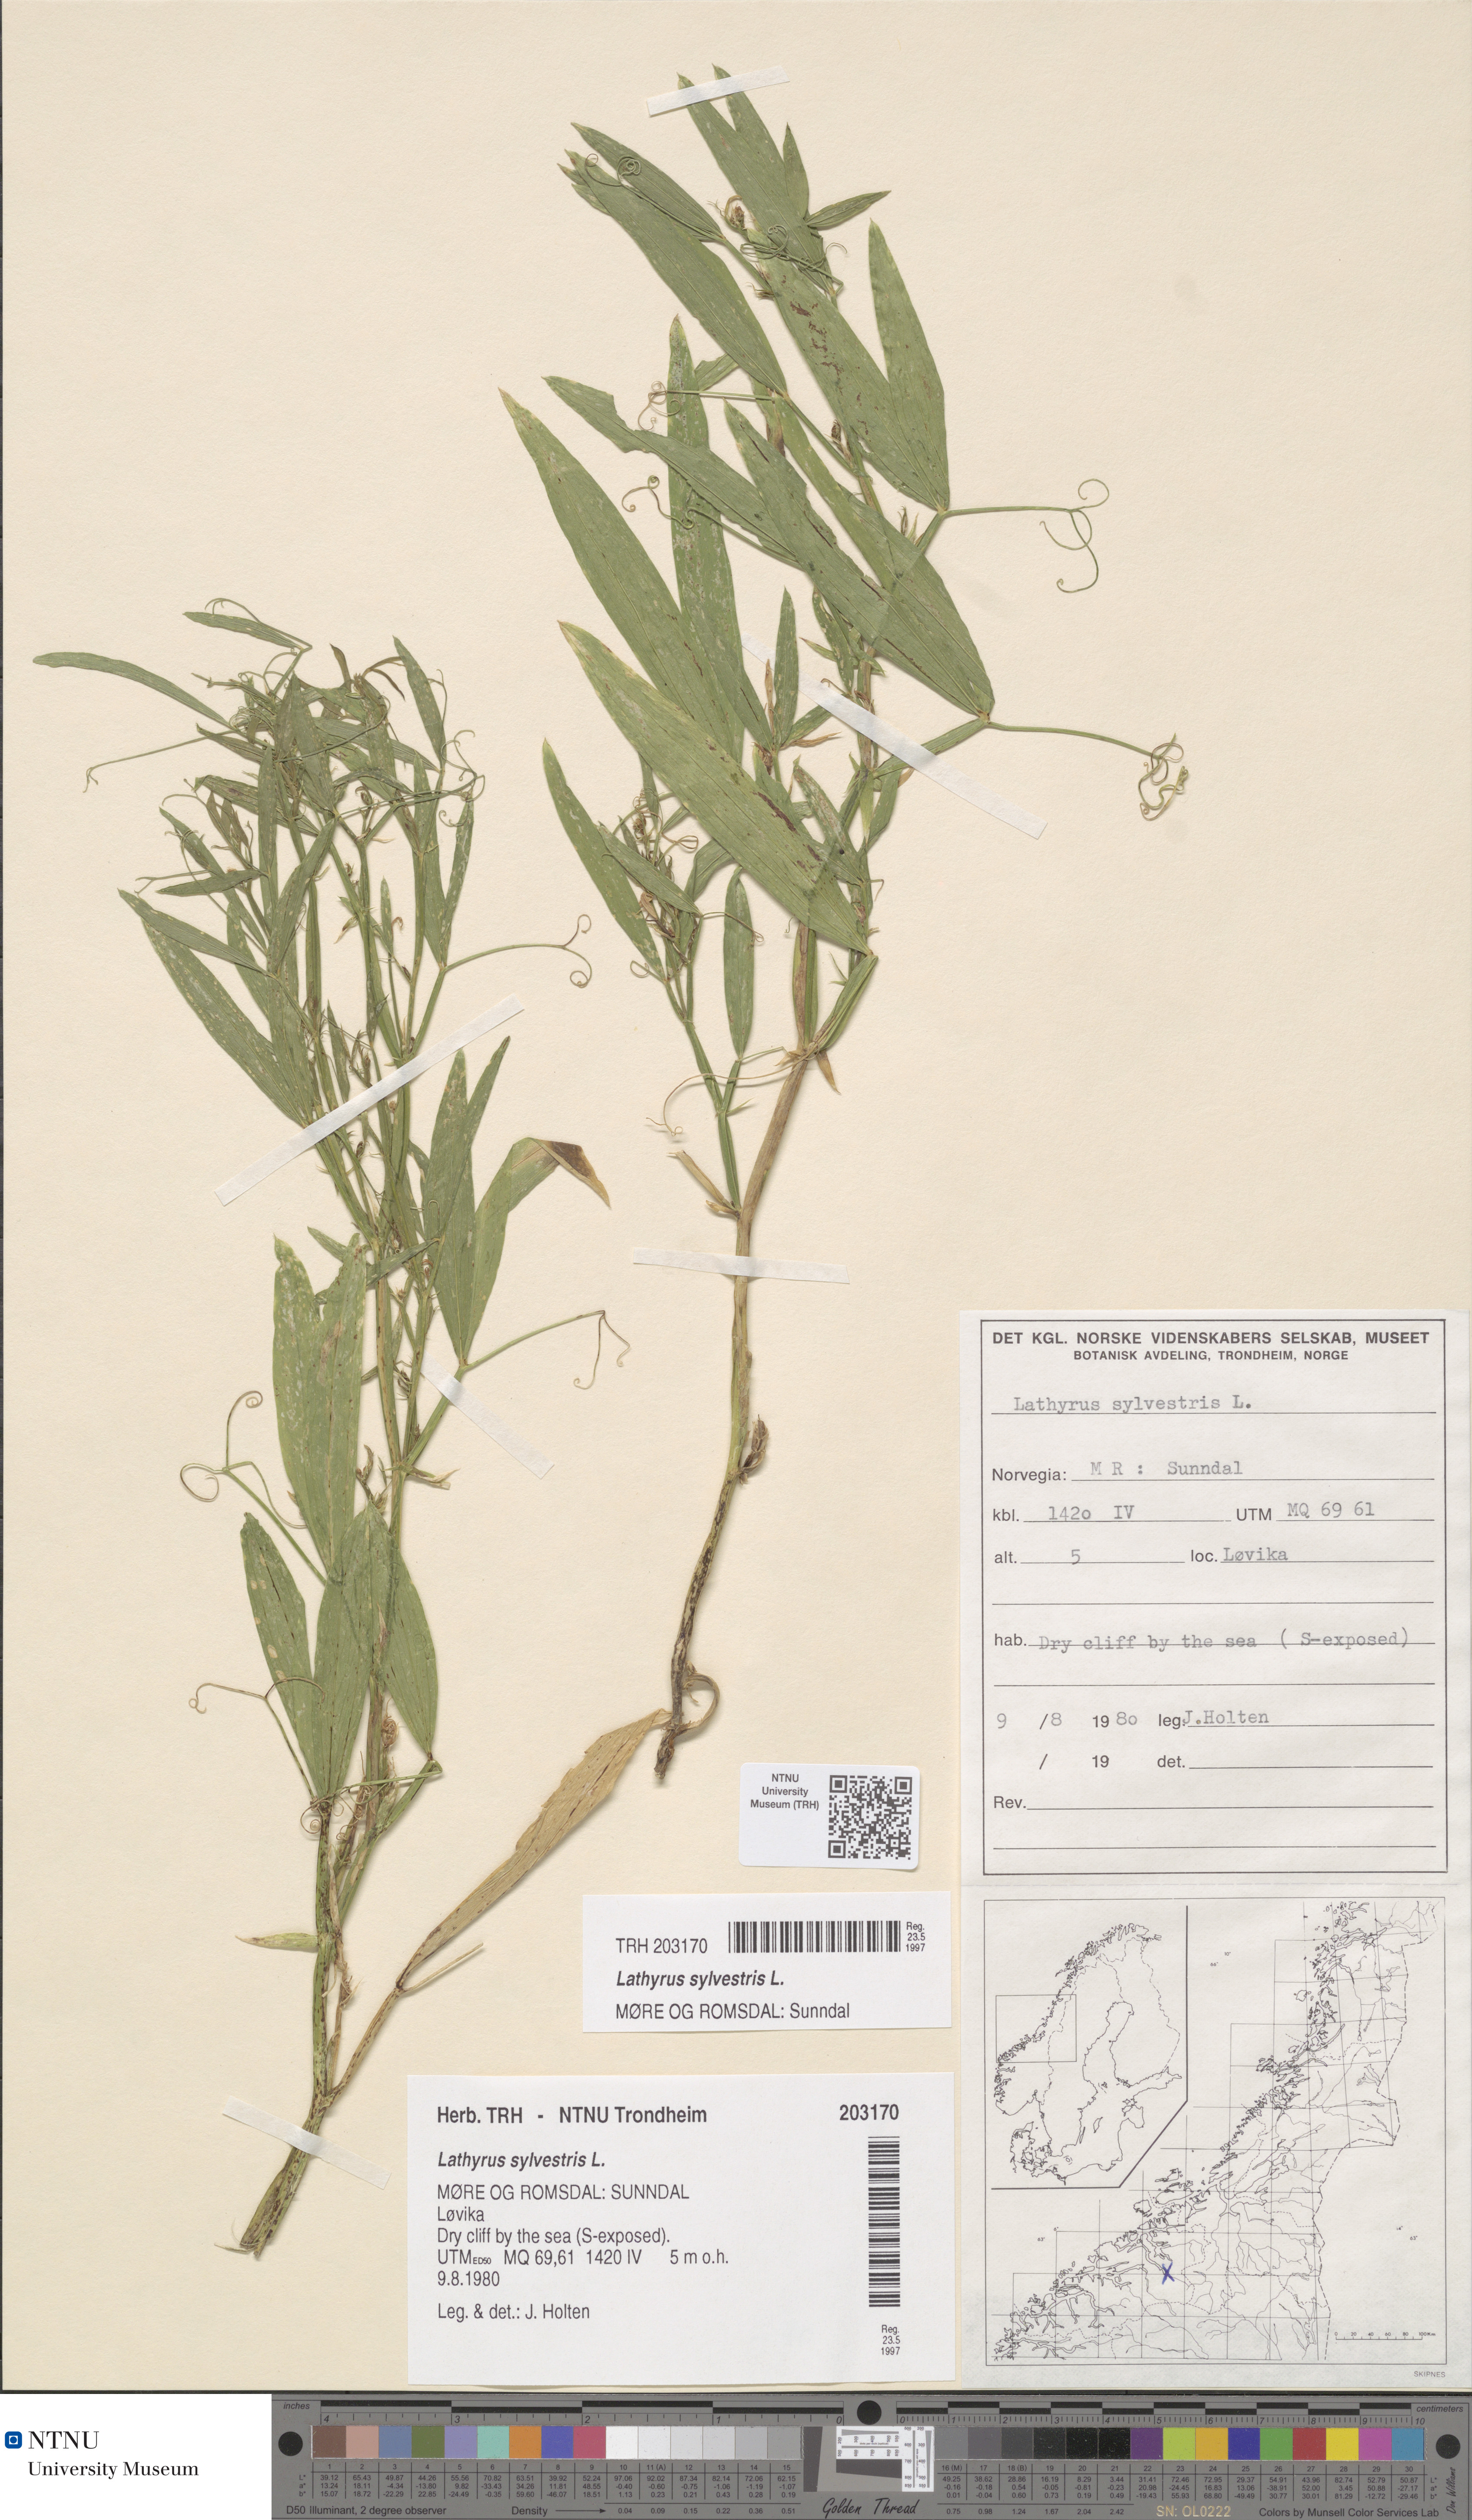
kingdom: Plantae
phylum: Tracheophyta
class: Magnoliopsida
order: Fabales
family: Fabaceae
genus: Lathyrus
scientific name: Lathyrus sylvestris
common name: Flat pea
